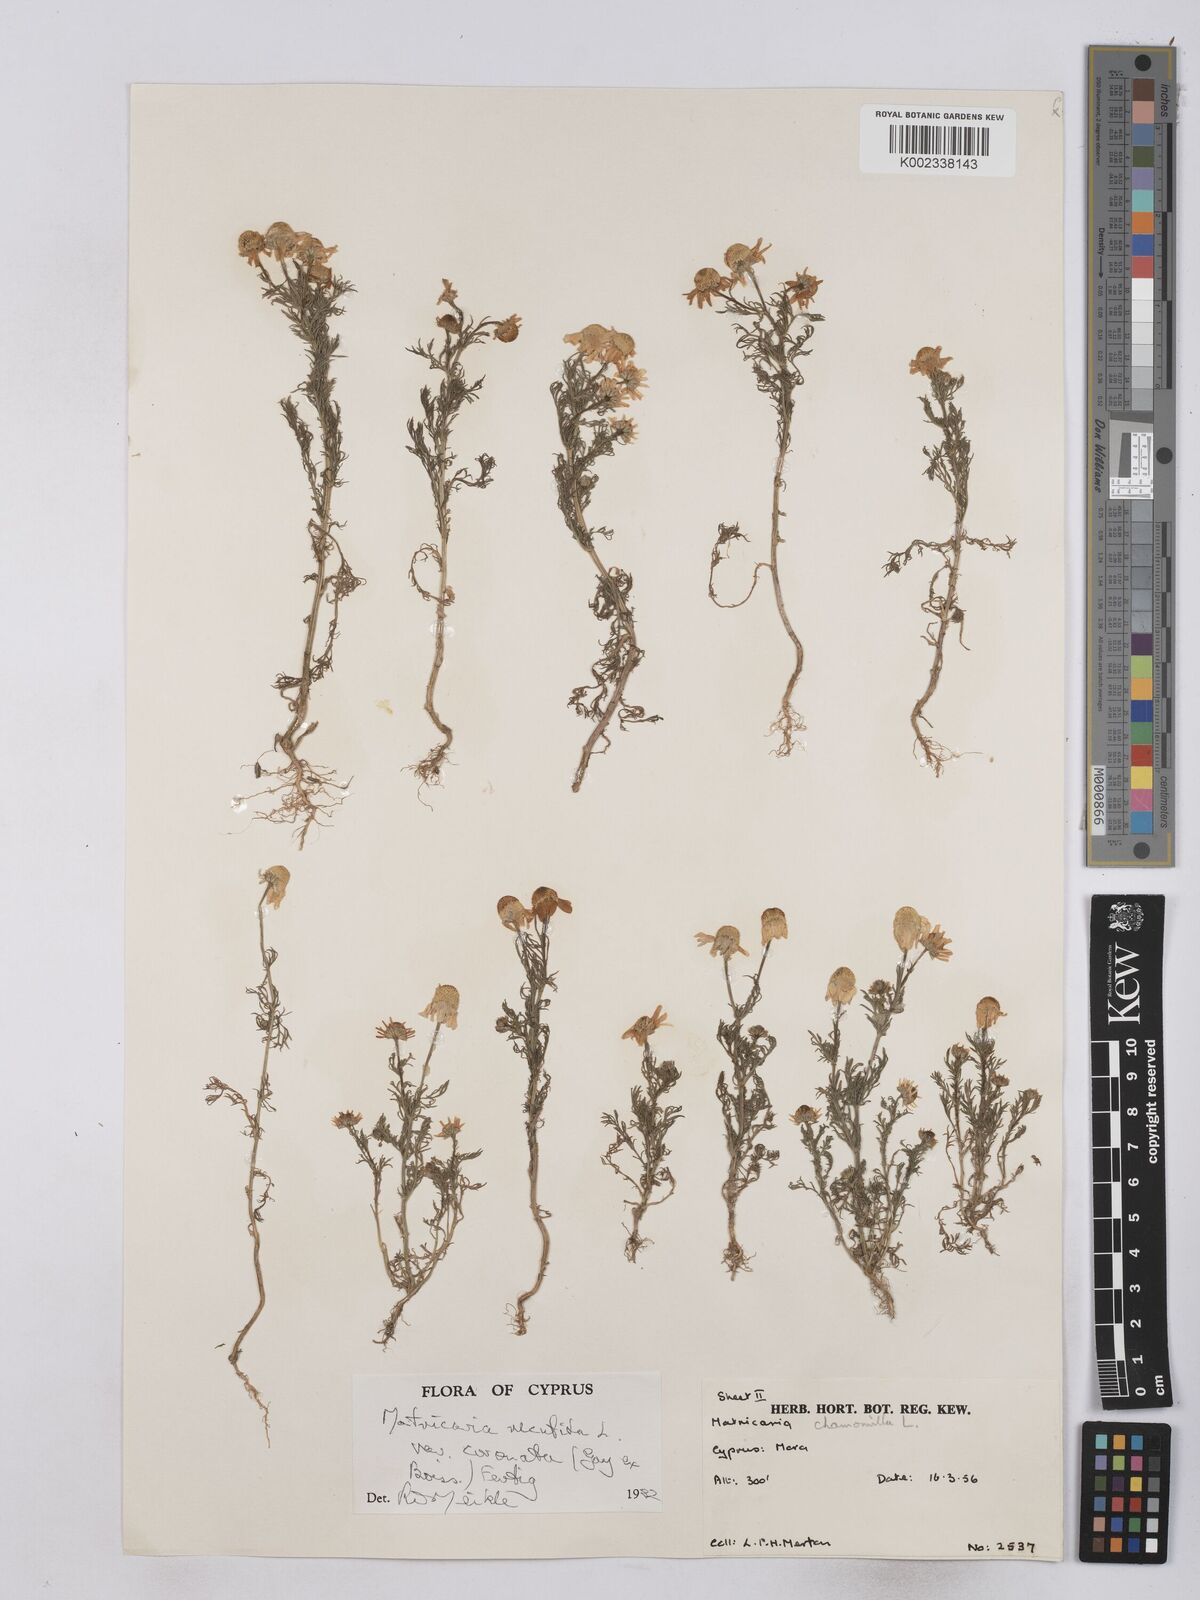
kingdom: Plantae
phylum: Tracheophyta
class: Magnoliopsida
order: Asterales
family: Asteraceae
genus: Matricaria
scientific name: Matricaria chamomilla
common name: Scented mayweed
